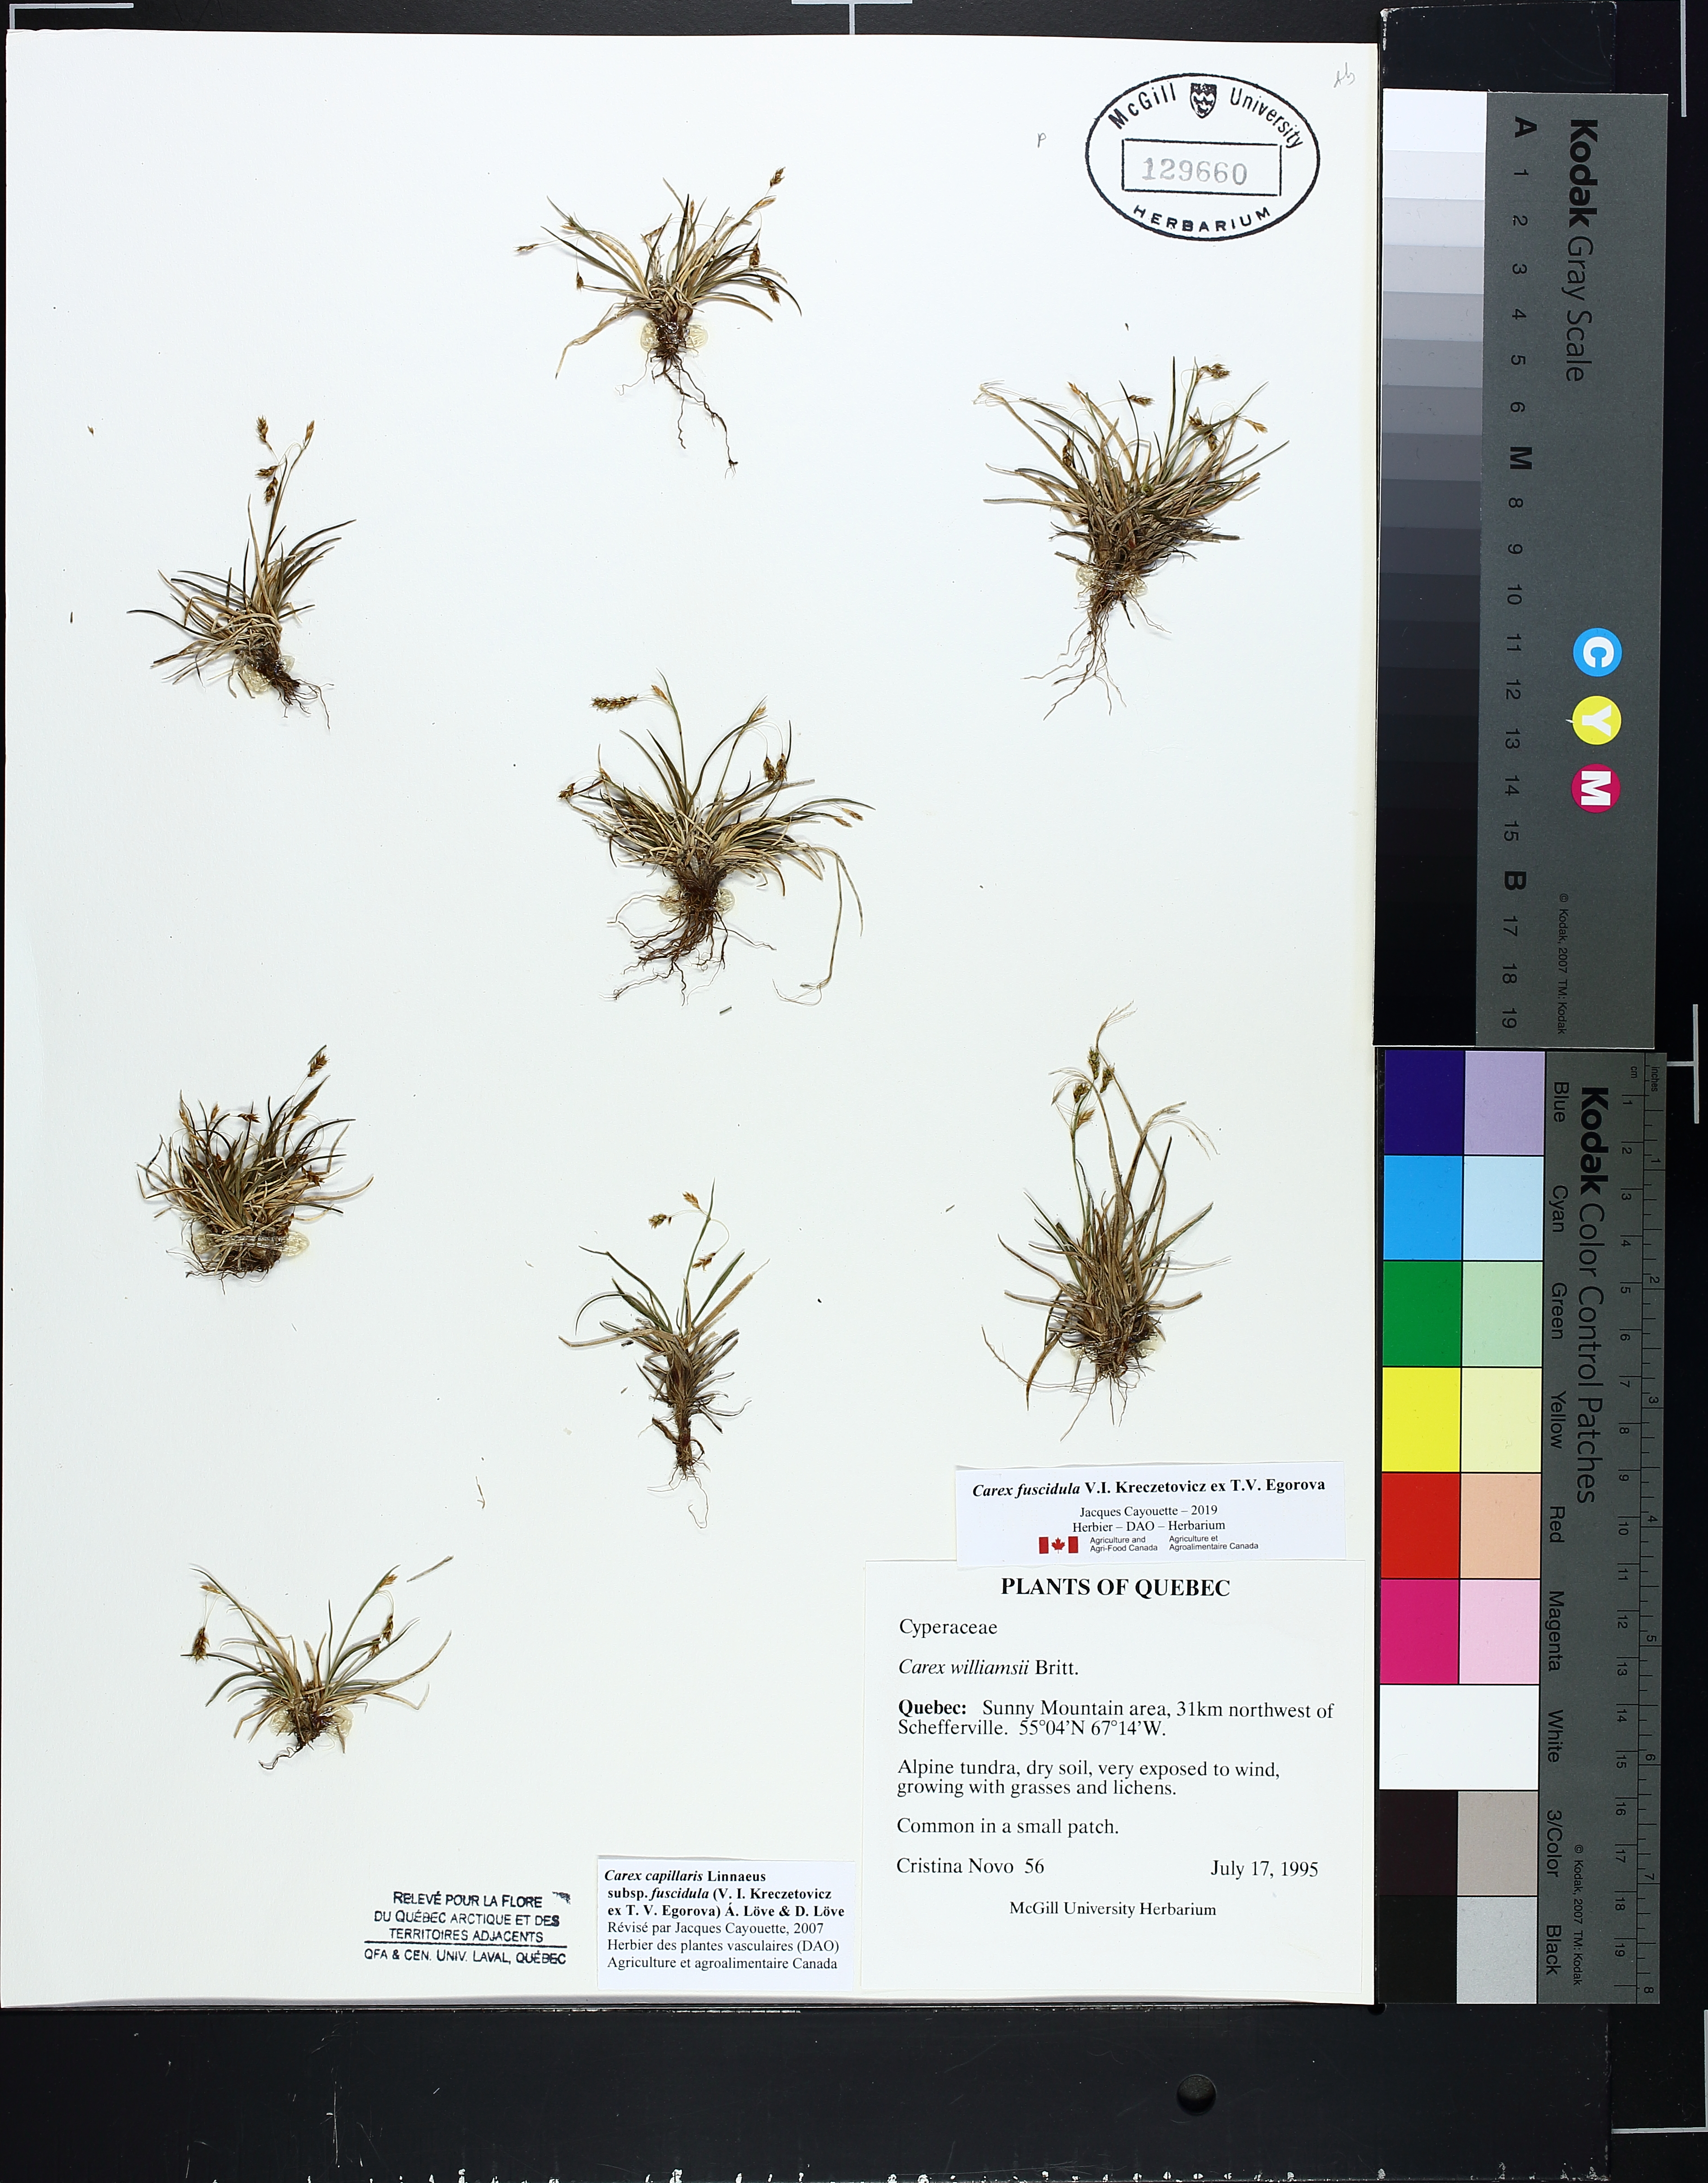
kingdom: Plantae
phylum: Tracheophyta
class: Liliopsida
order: Poales
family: Cyperaceae
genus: Carex
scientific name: Carex capillaris
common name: Hair sedge
